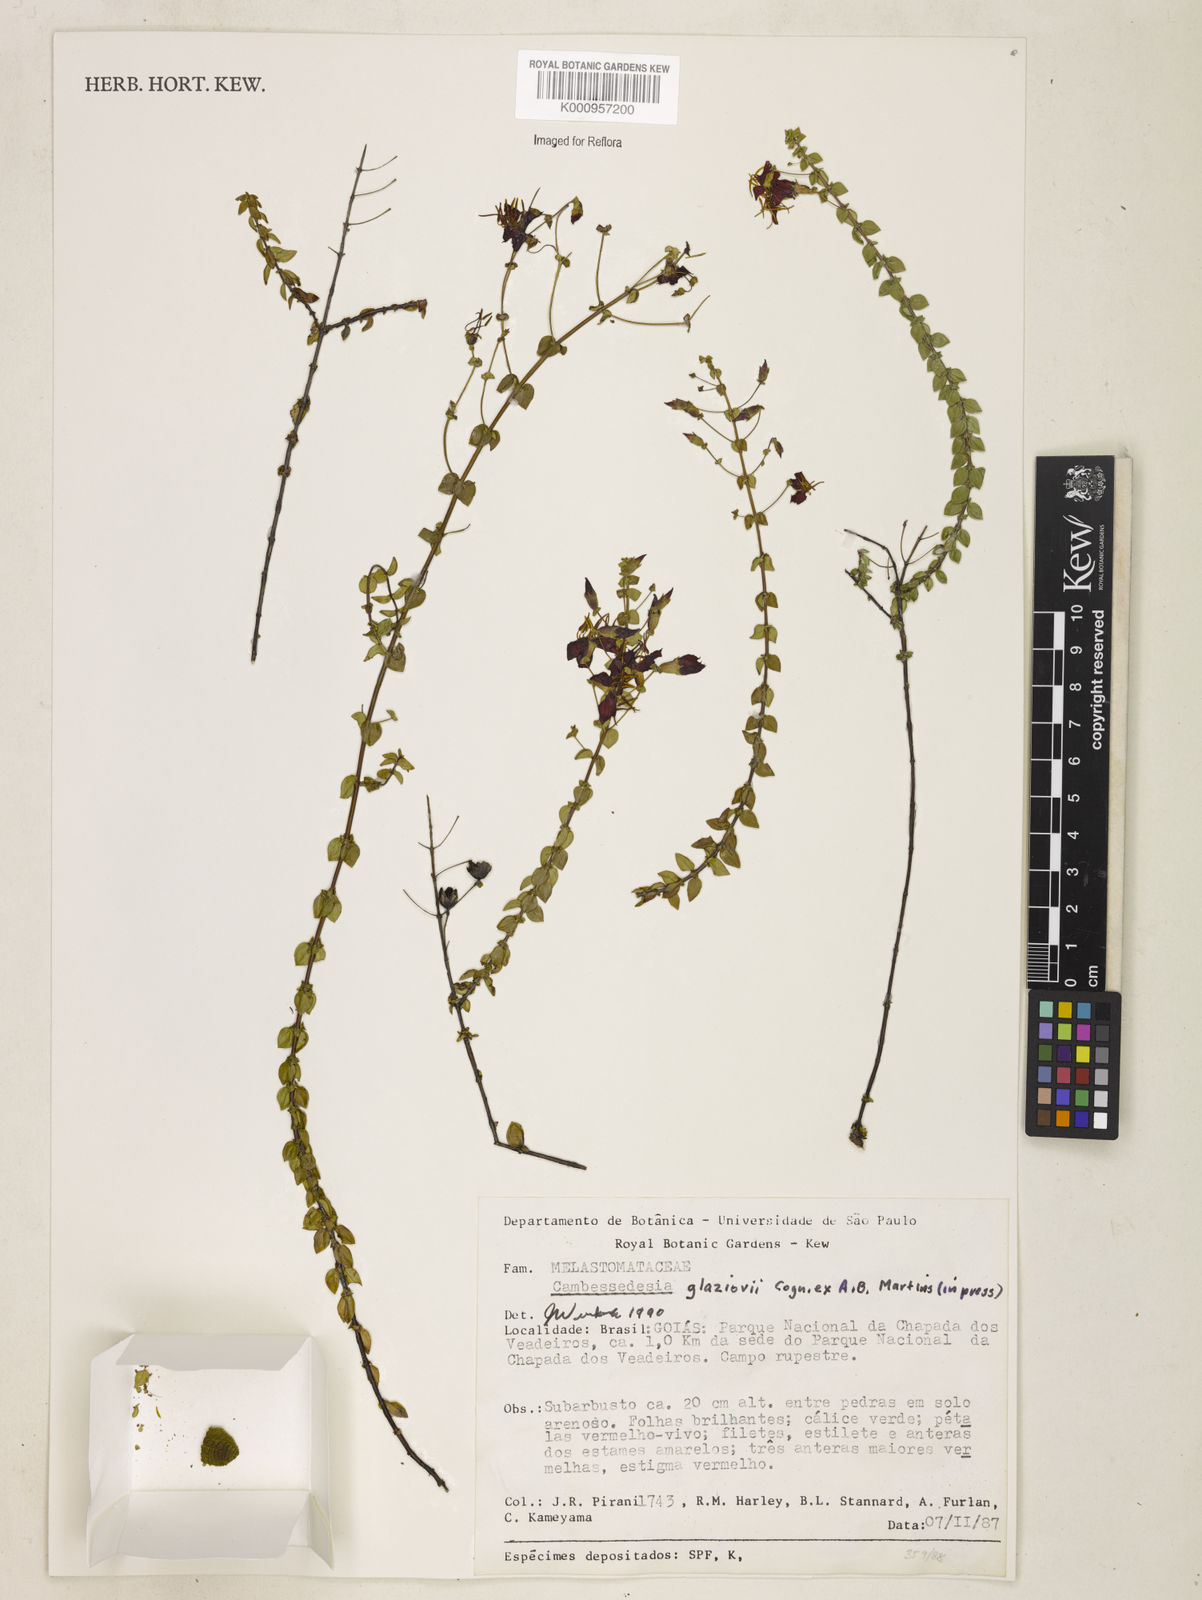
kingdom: Plantae
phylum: Tracheophyta
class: Magnoliopsida
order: Myrtales
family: Melastomataceae
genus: Cambessedesia
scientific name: Cambessedesia glaziovii
